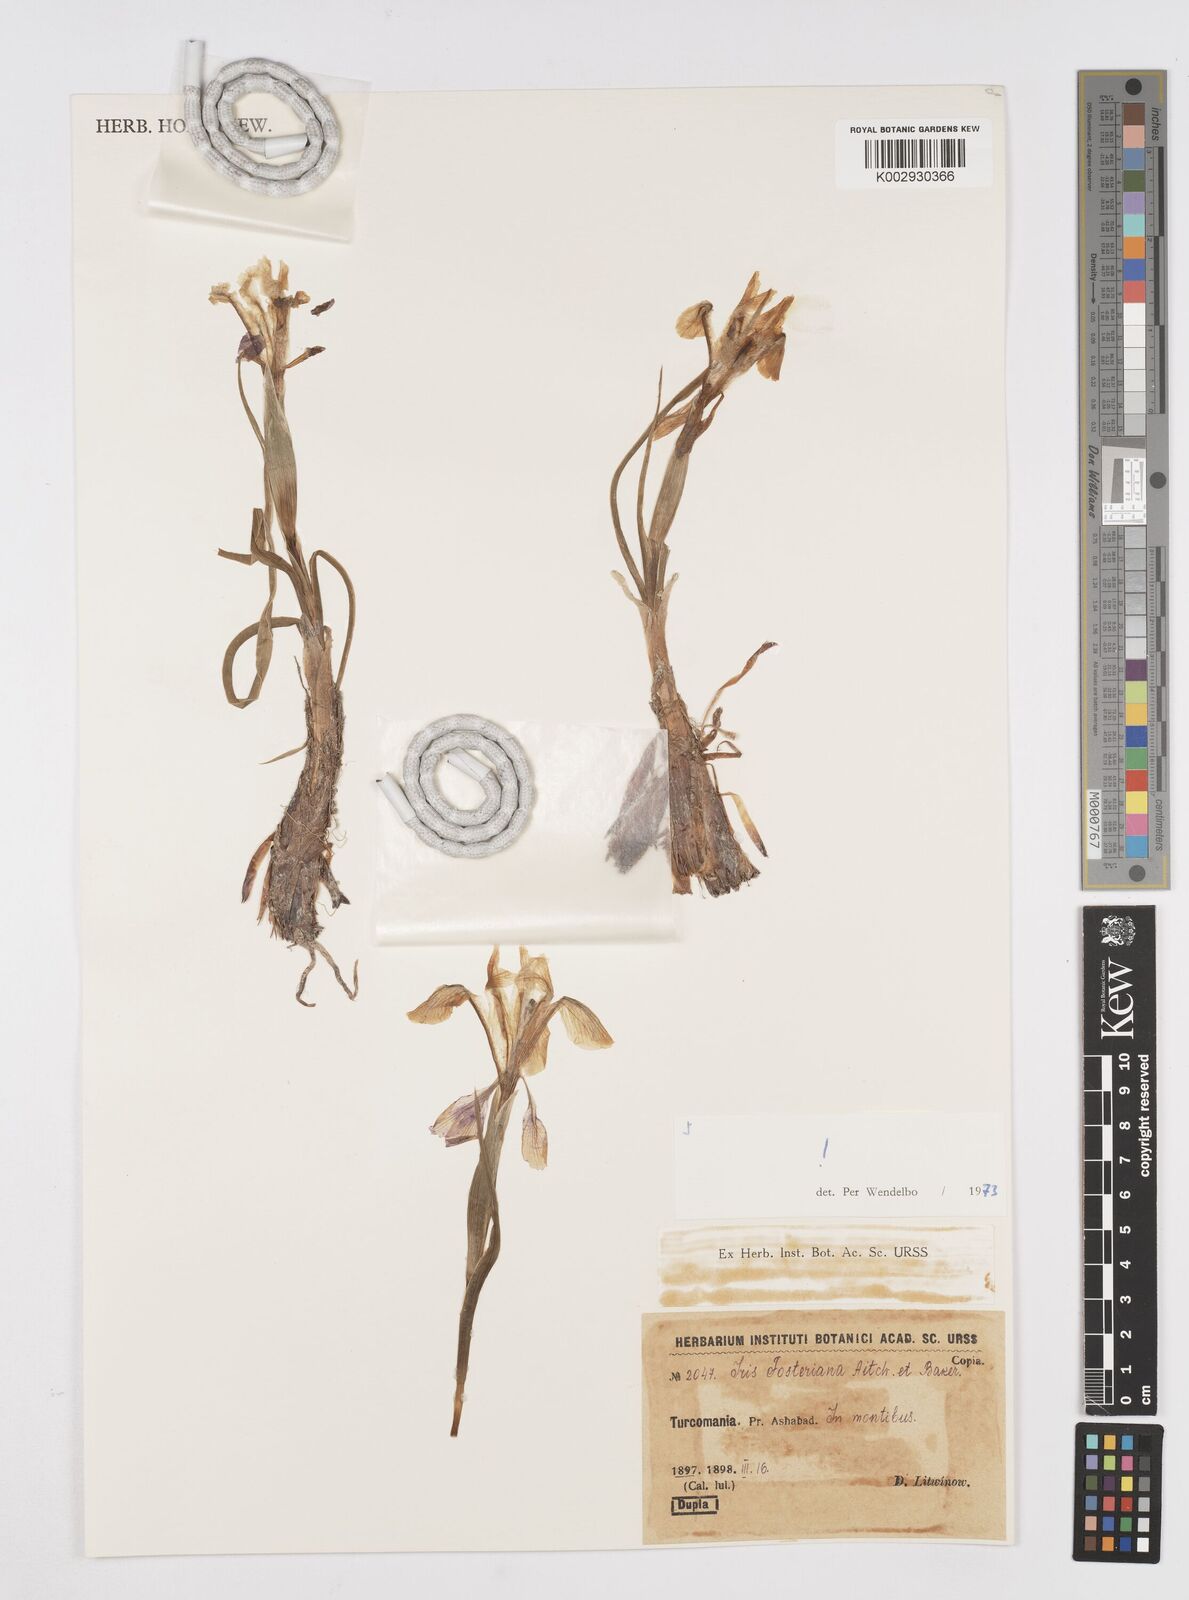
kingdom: Plantae
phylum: Tracheophyta
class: Liliopsida
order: Asparagales
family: Iridaceae
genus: Iris
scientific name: Iris fosteriana
